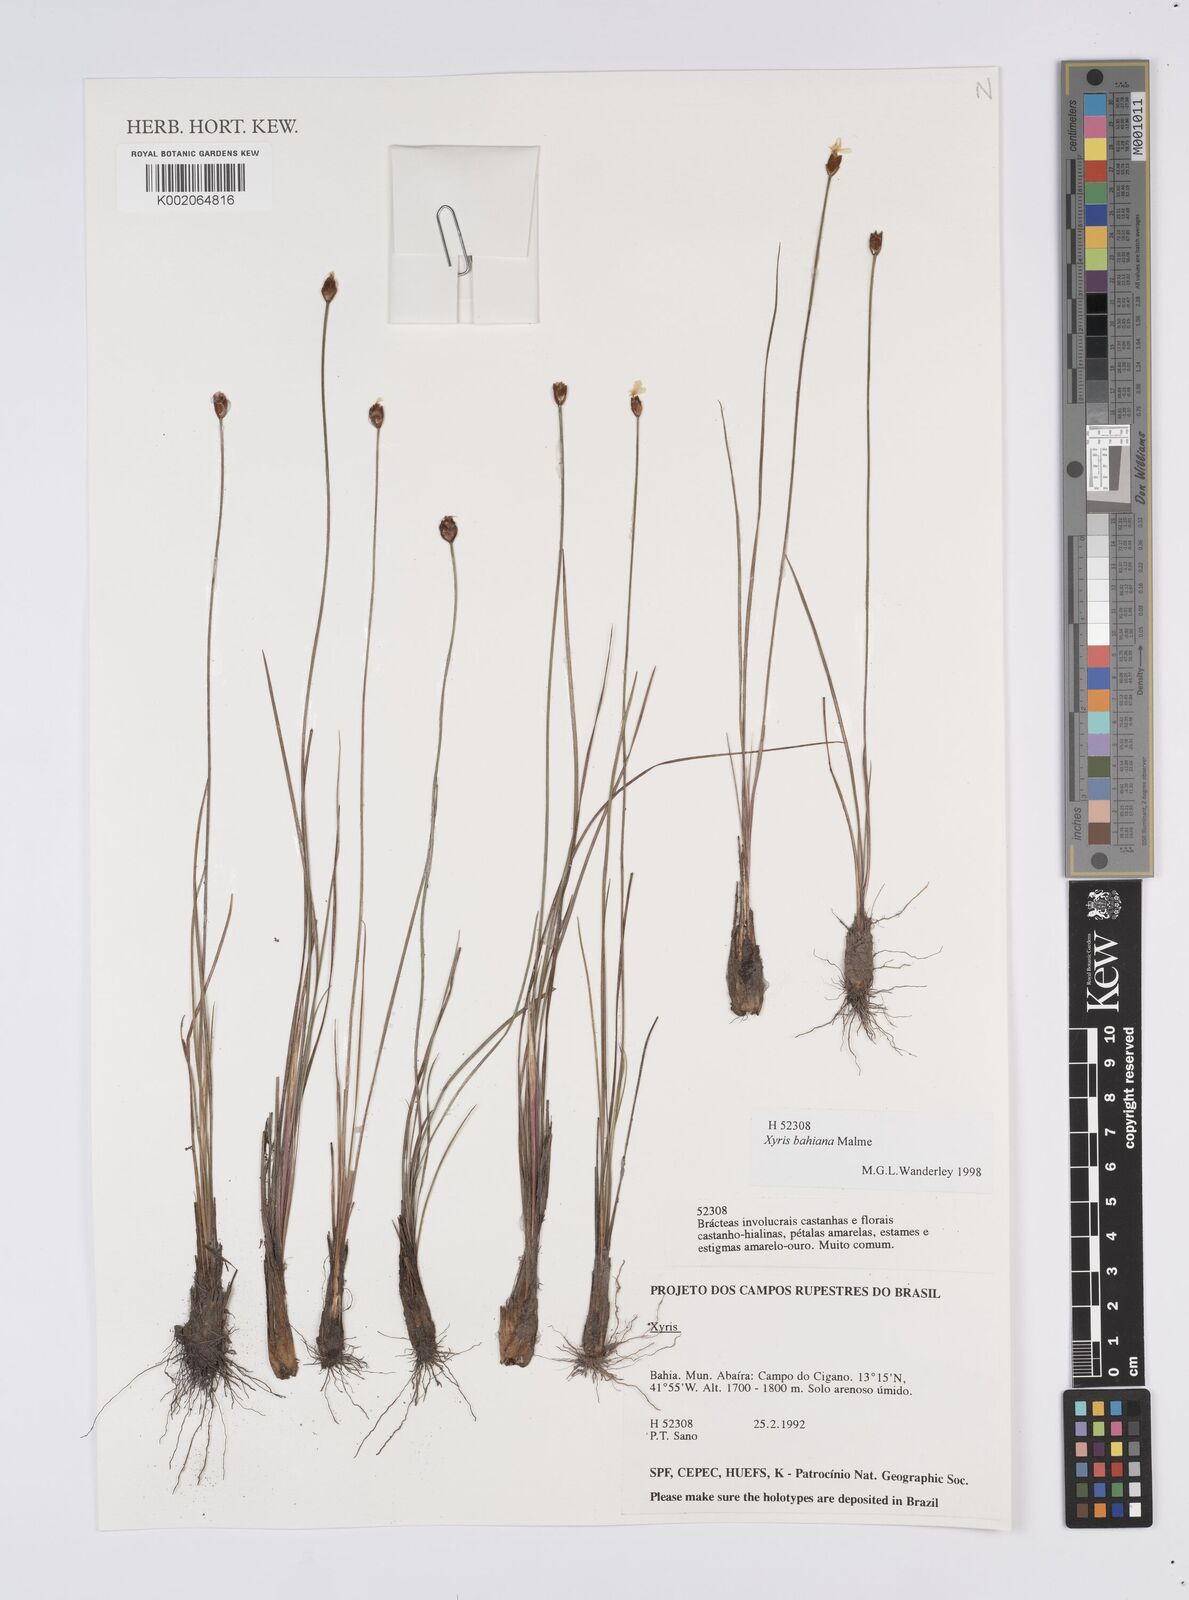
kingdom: Plantae
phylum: Tracheophyta
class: Liliopsida
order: Poales
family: Xyridaceae
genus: Xyris
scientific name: Xyris bahiana
